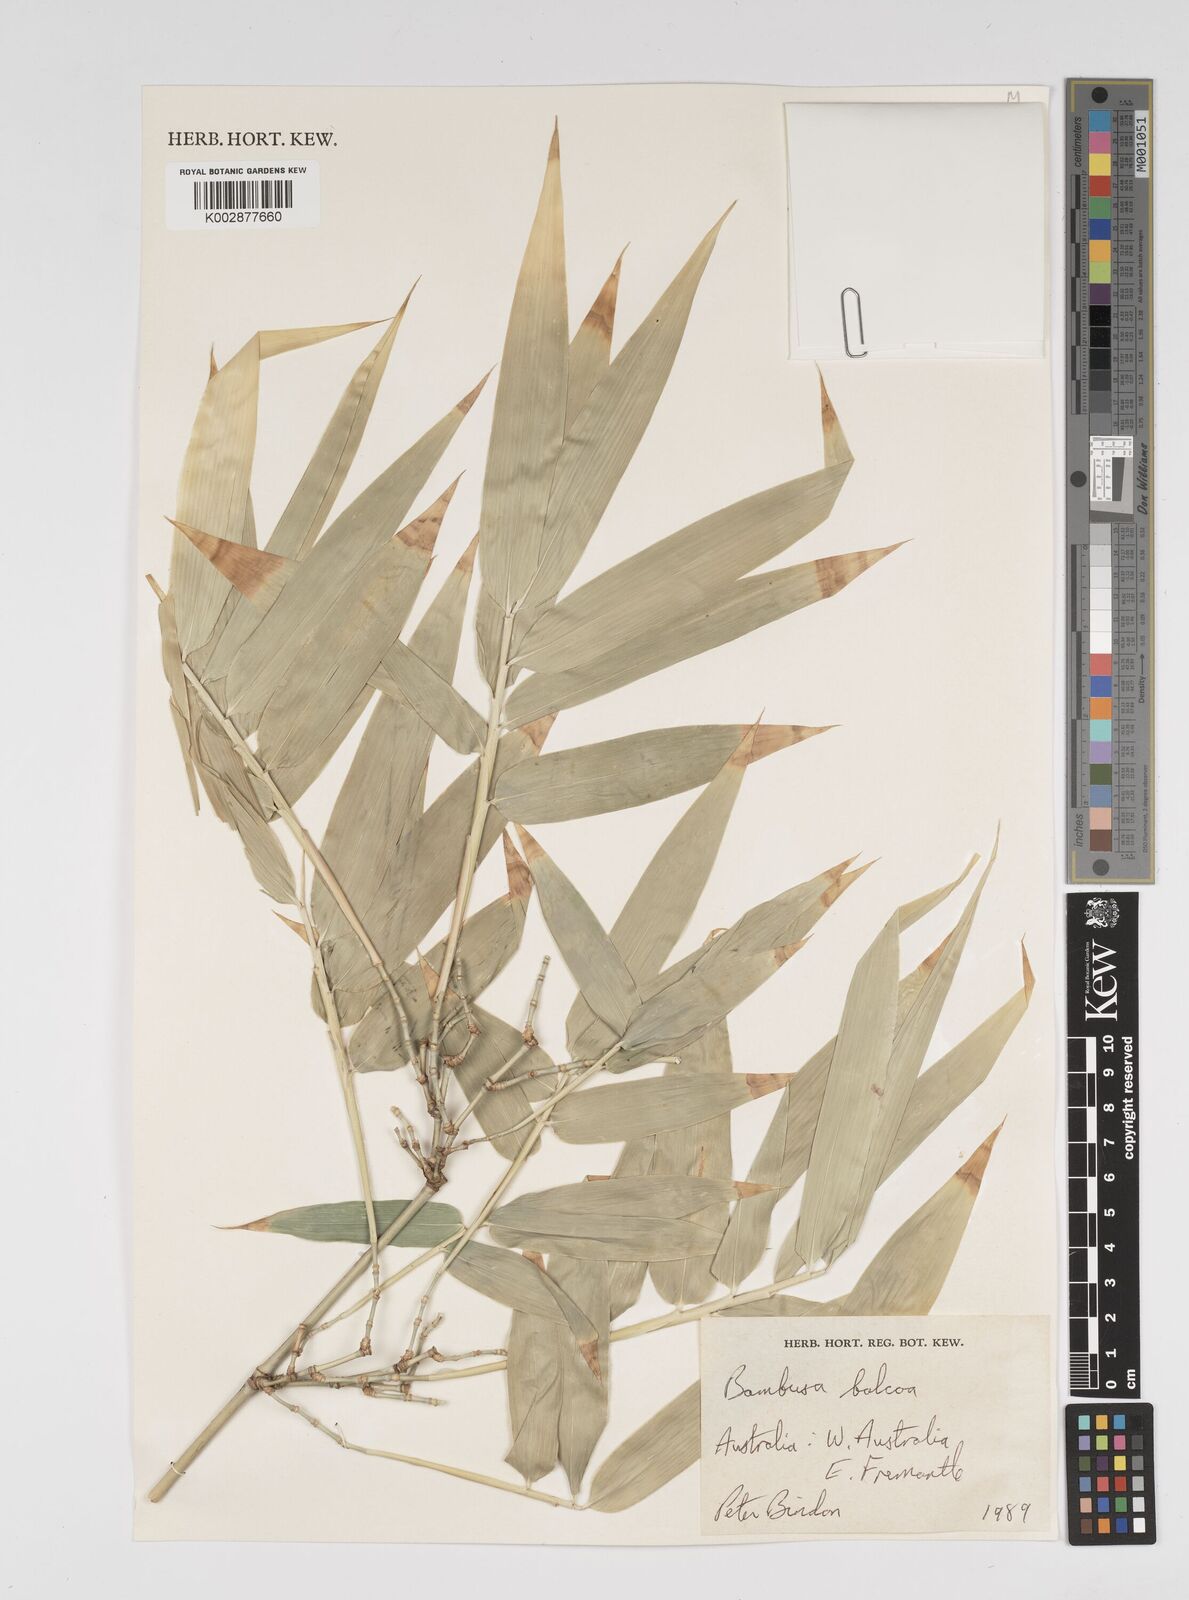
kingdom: Plantae
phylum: Tracheophyta
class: Liliopsida
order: Poales
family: Poaceae
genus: Bambusa
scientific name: Bambusa balcooa
